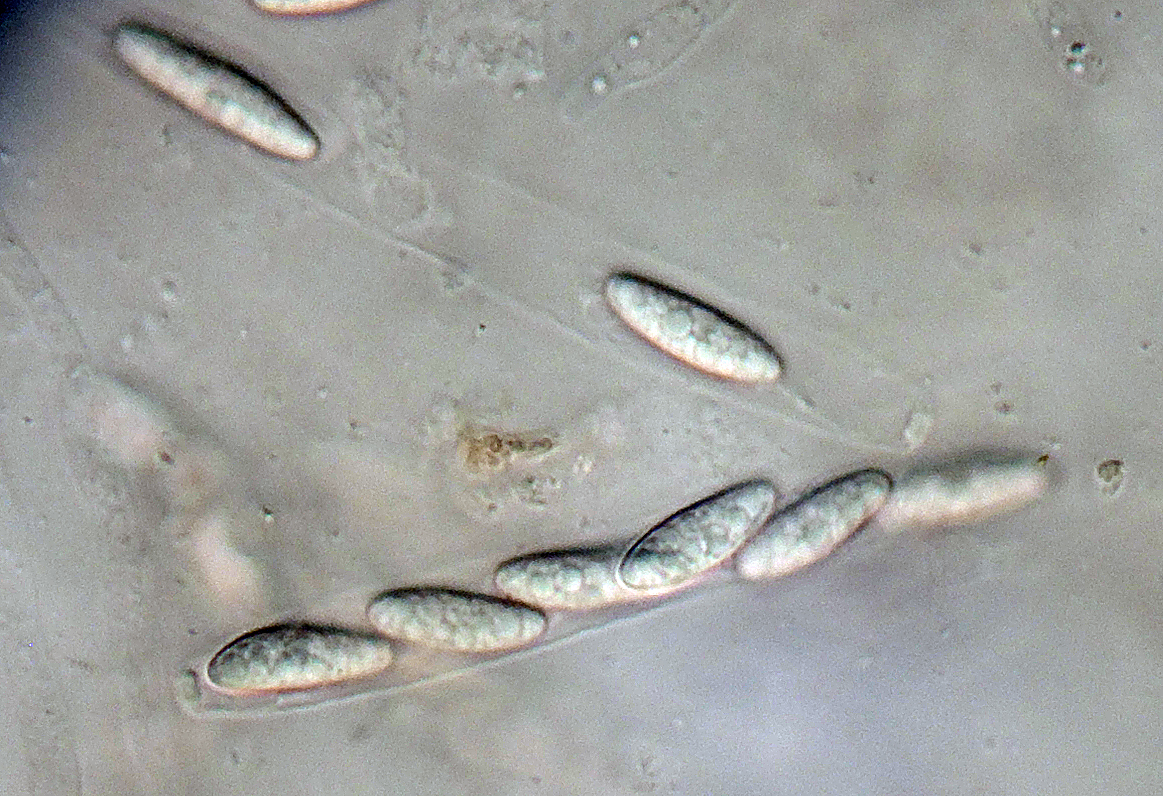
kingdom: Fungi
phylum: Ascomycota
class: Sordariomycetes
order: Boliniales
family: Boliniaceae
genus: Ceratostomella
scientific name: Ceratostomella fuscolutea
